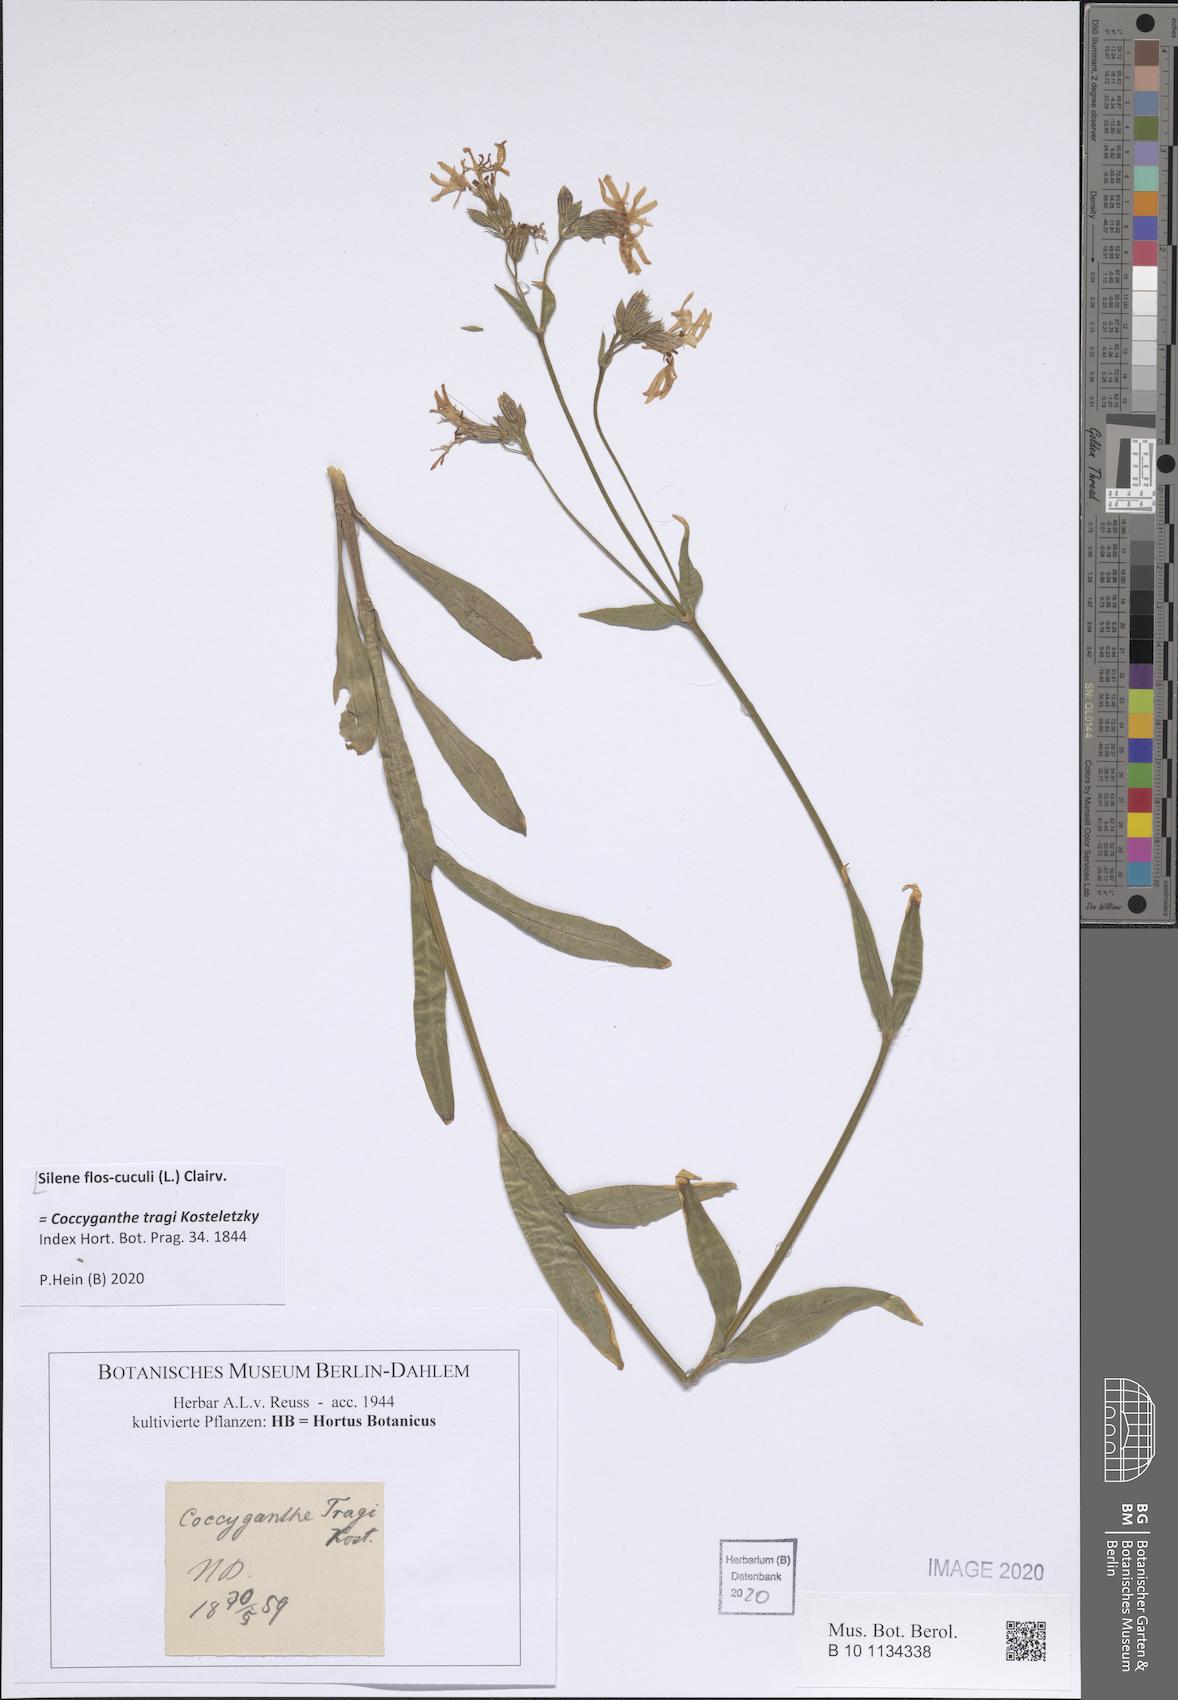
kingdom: Plantae
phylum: Tracheophyta
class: Magnoliopsida
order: Caryophyllales
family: Caryophyllaceae
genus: Silene
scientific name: Silene flos-cuculi
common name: Ragged-robin
